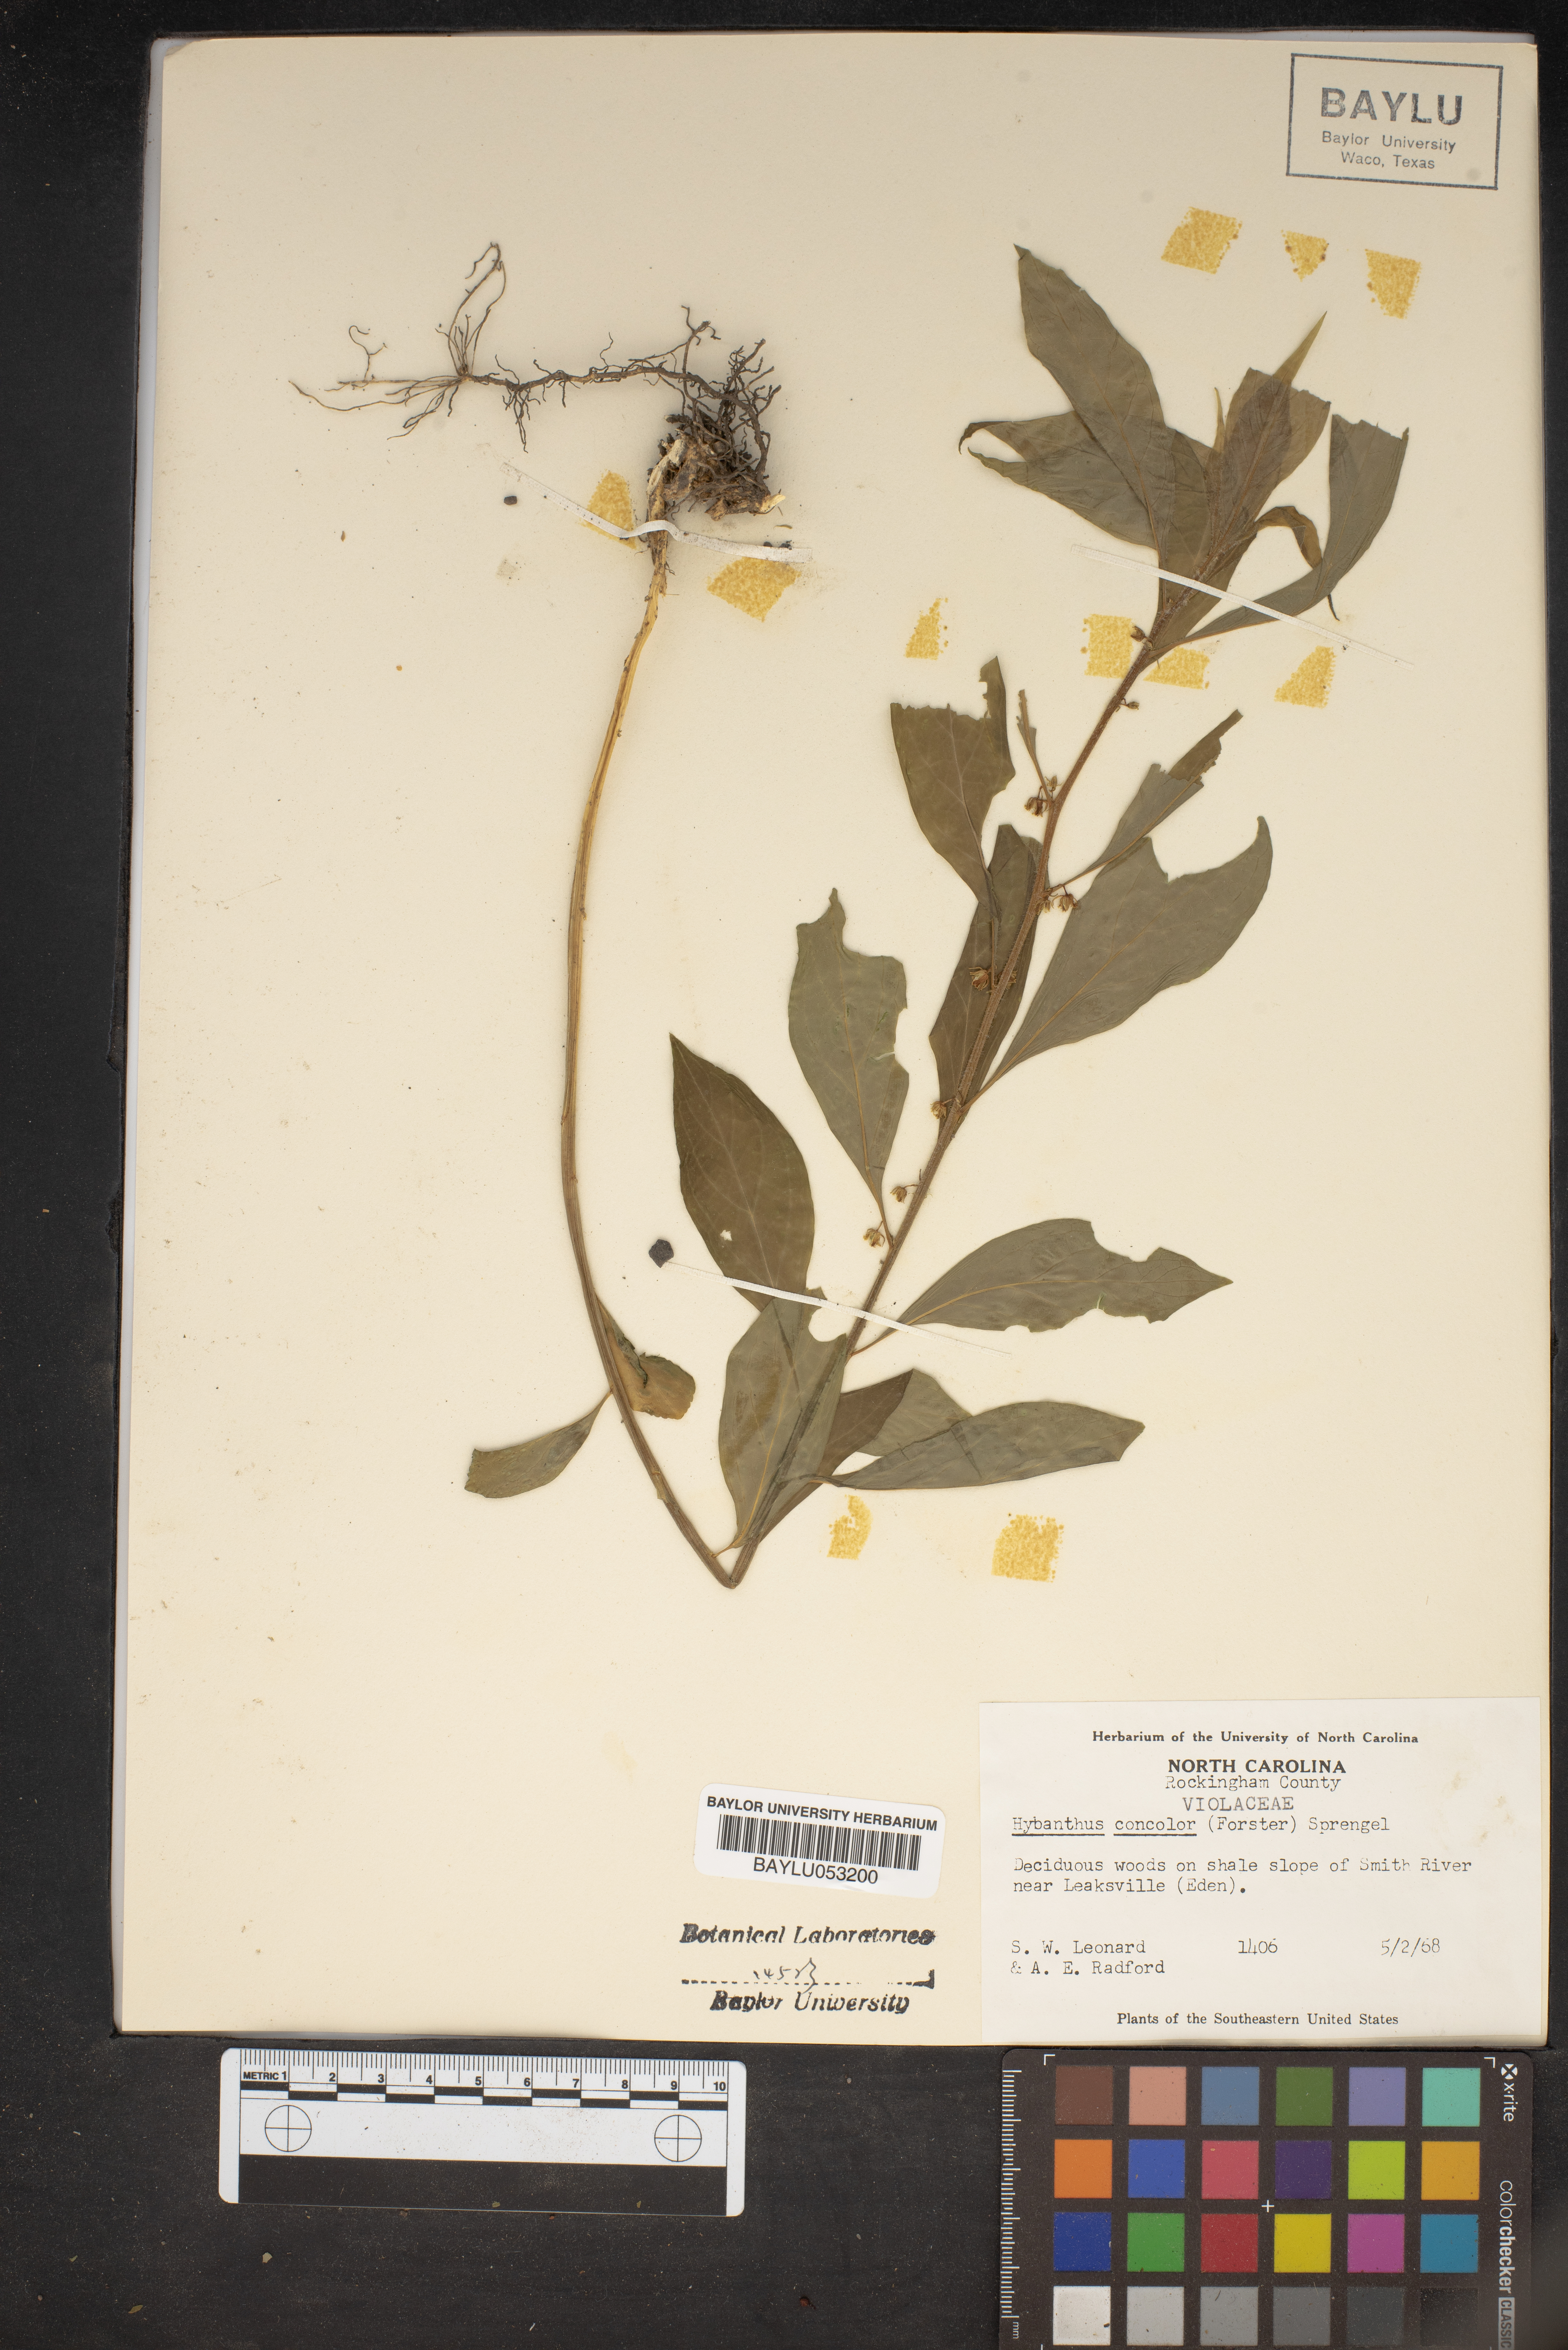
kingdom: Plantae
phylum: Tracheophyta
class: Magnoliopsida
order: Malpighiales
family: Violaceae
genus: Cubelium
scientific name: Cubelium concolor
